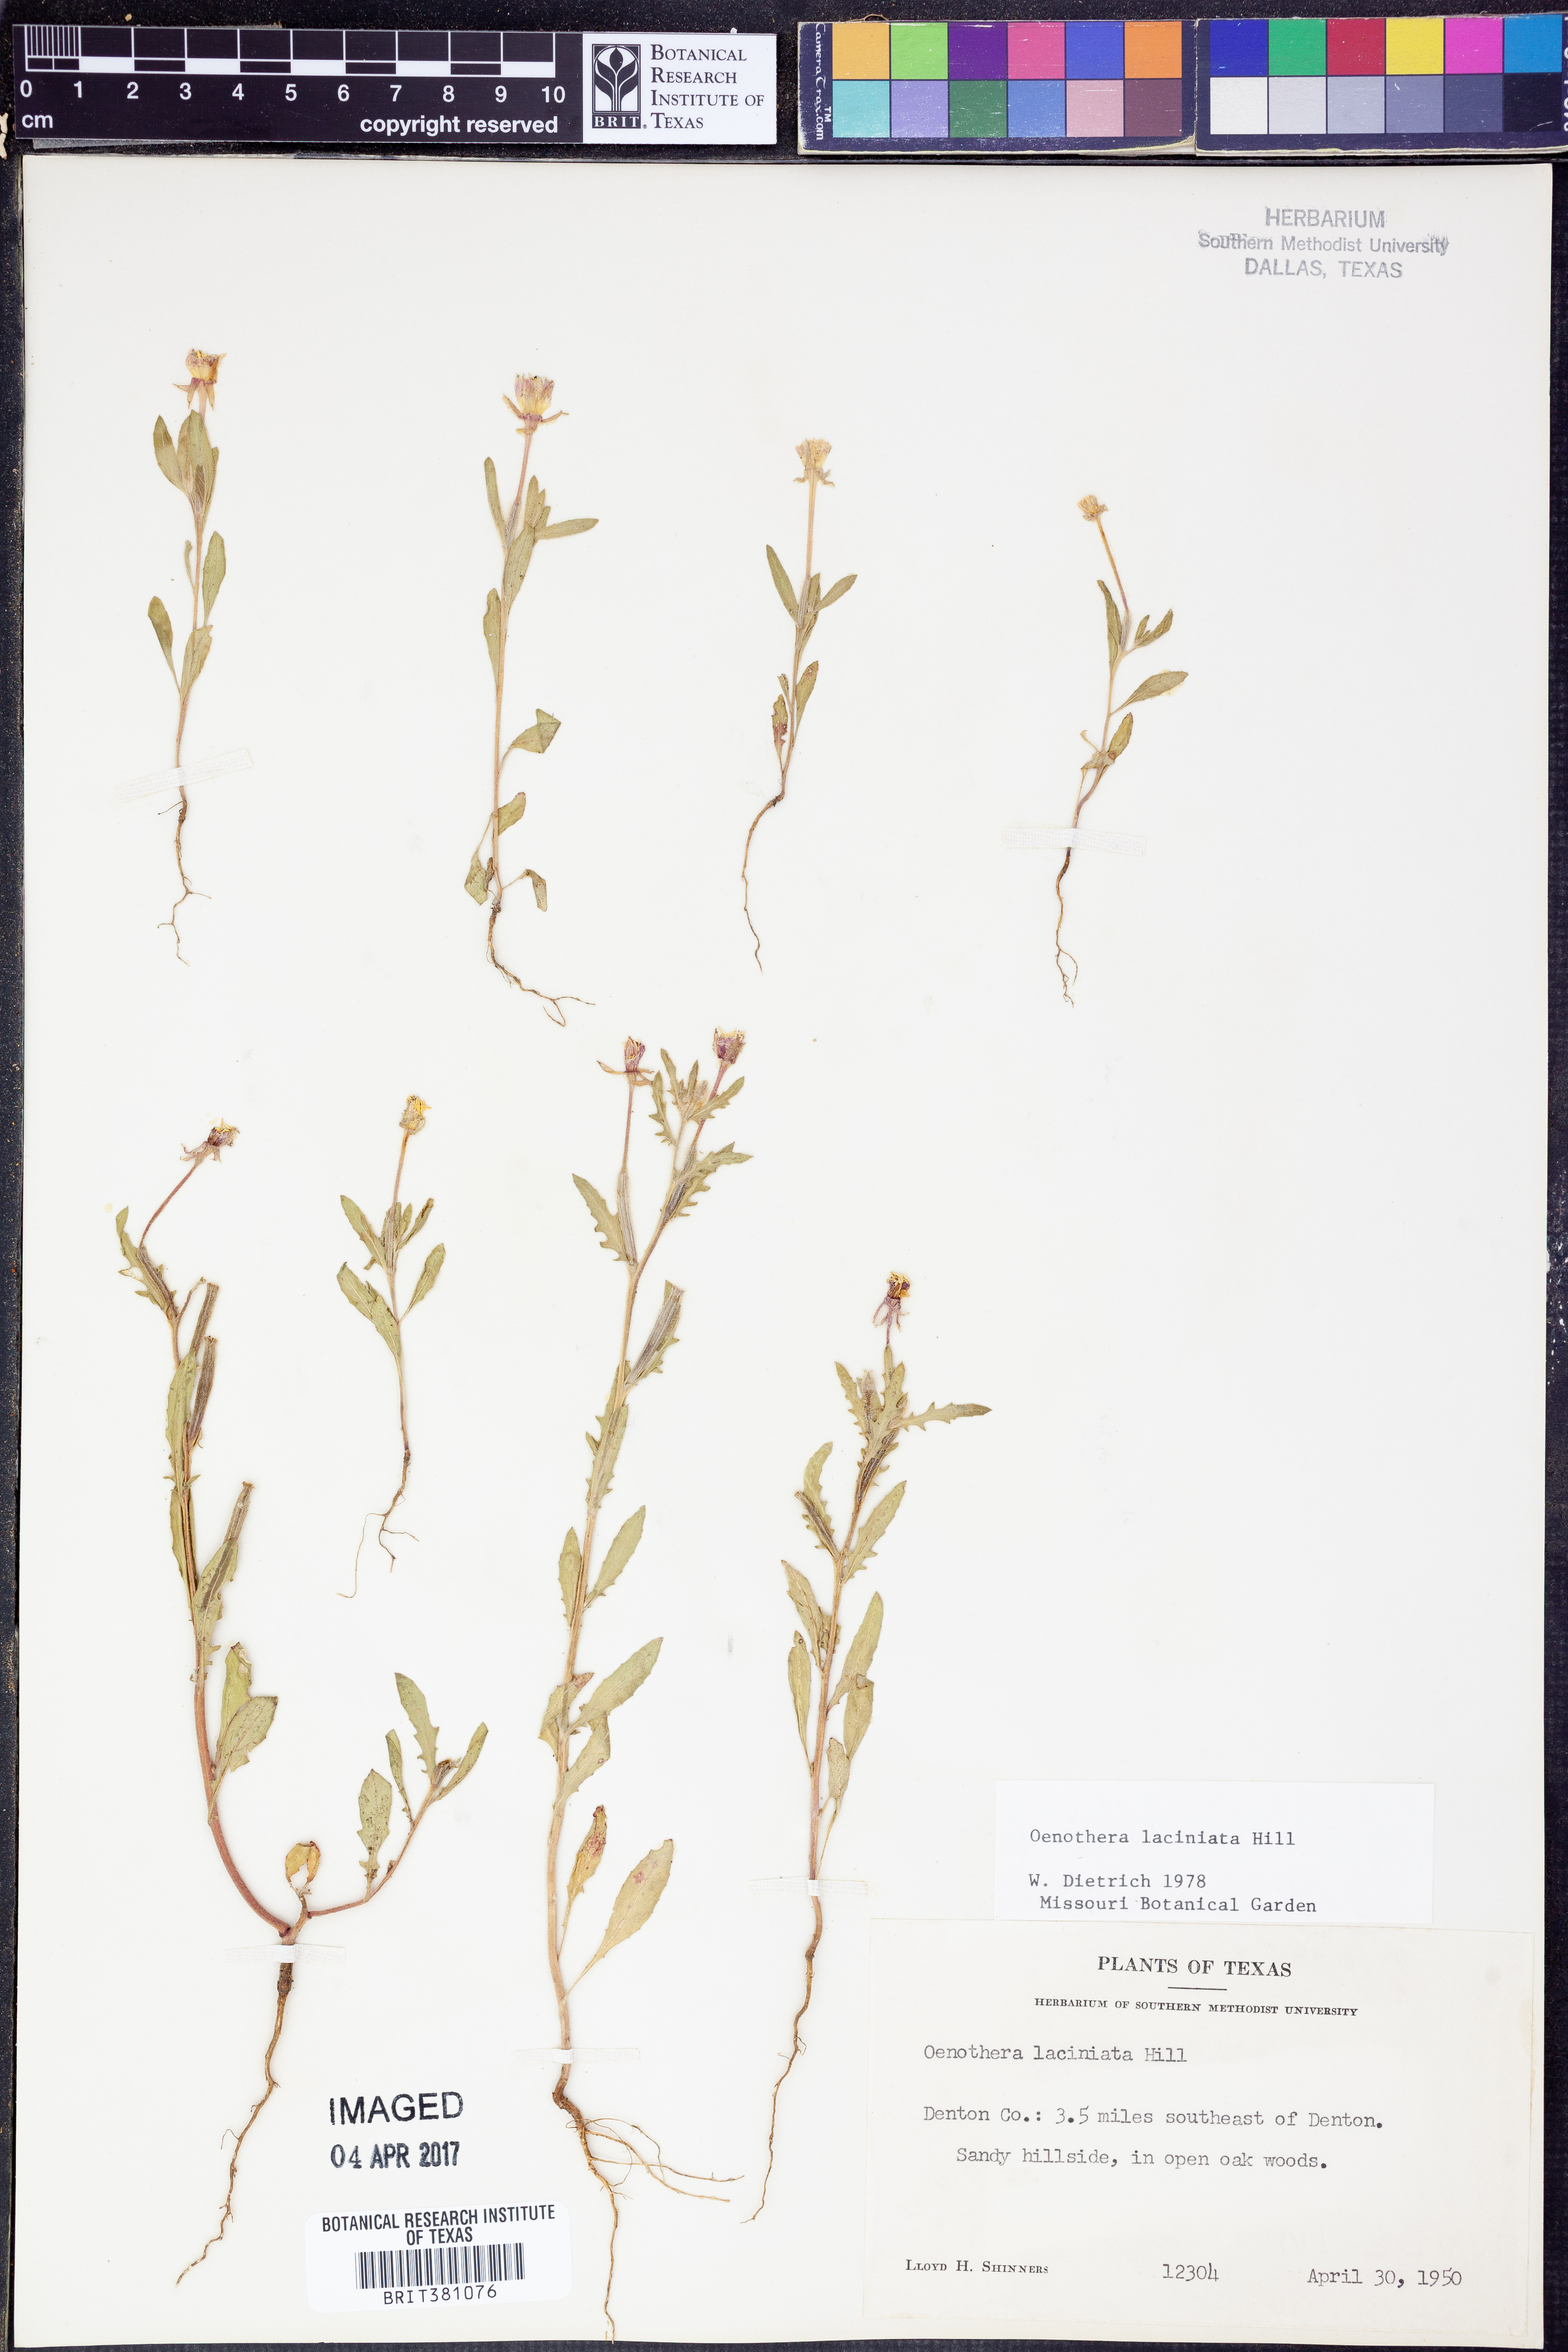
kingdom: Plantae
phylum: Tracheophyta
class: Magnoliopsida
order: Myrtales
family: Onagraceae
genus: Oenothera
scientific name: Oenothera laciniata
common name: Cut-leaved evening-primrose
